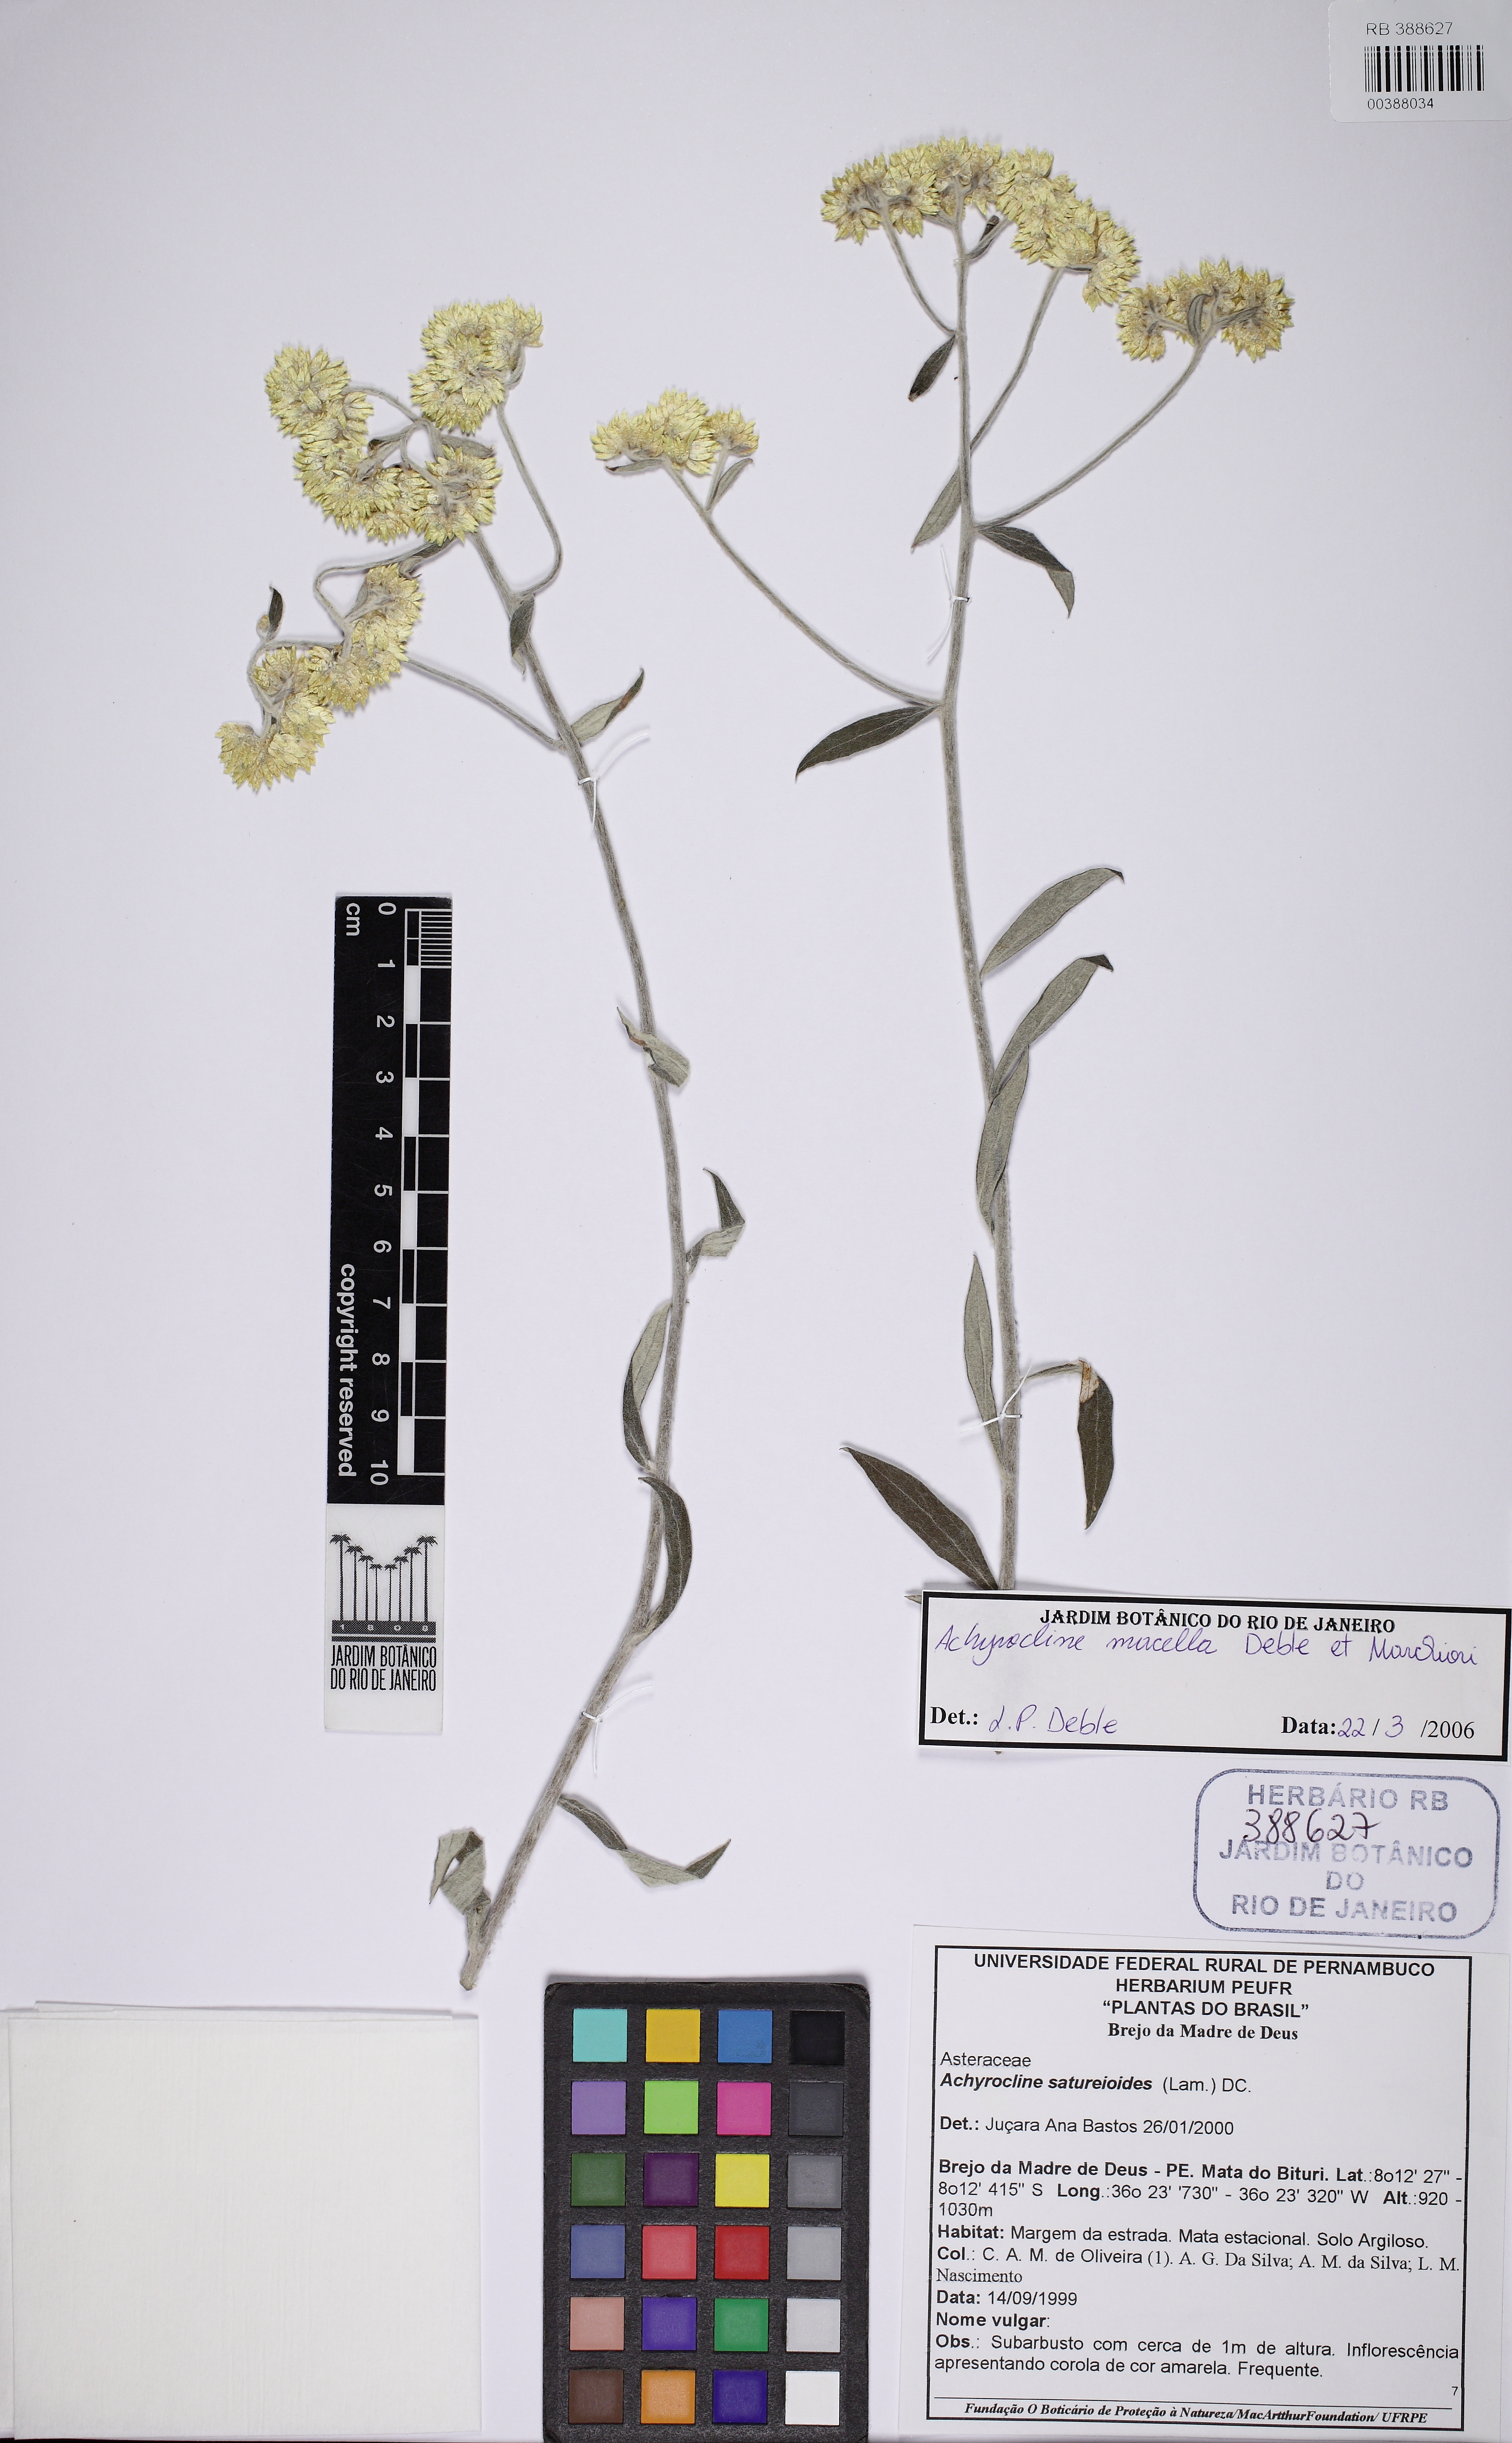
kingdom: Plantae
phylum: Tracheophyta
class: Magnoliopsida
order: Asterales
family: Asteraceae
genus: Achyrocline
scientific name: Achyrocline satureioides
